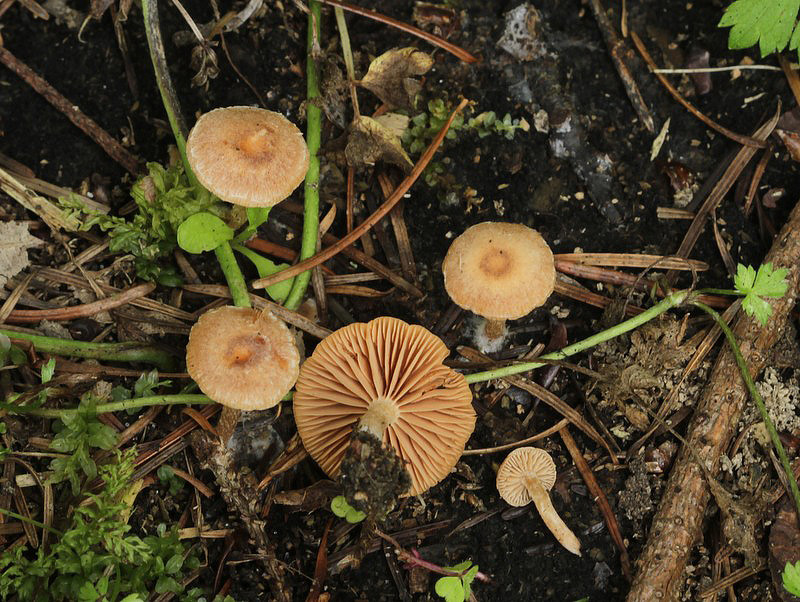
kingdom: Fungi
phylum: Basidiomycota
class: Agaricomycetes
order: Agaricales
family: Tubariaceae
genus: Tubaria
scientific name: Tubaria furfuracea
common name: kliddet fnughat
